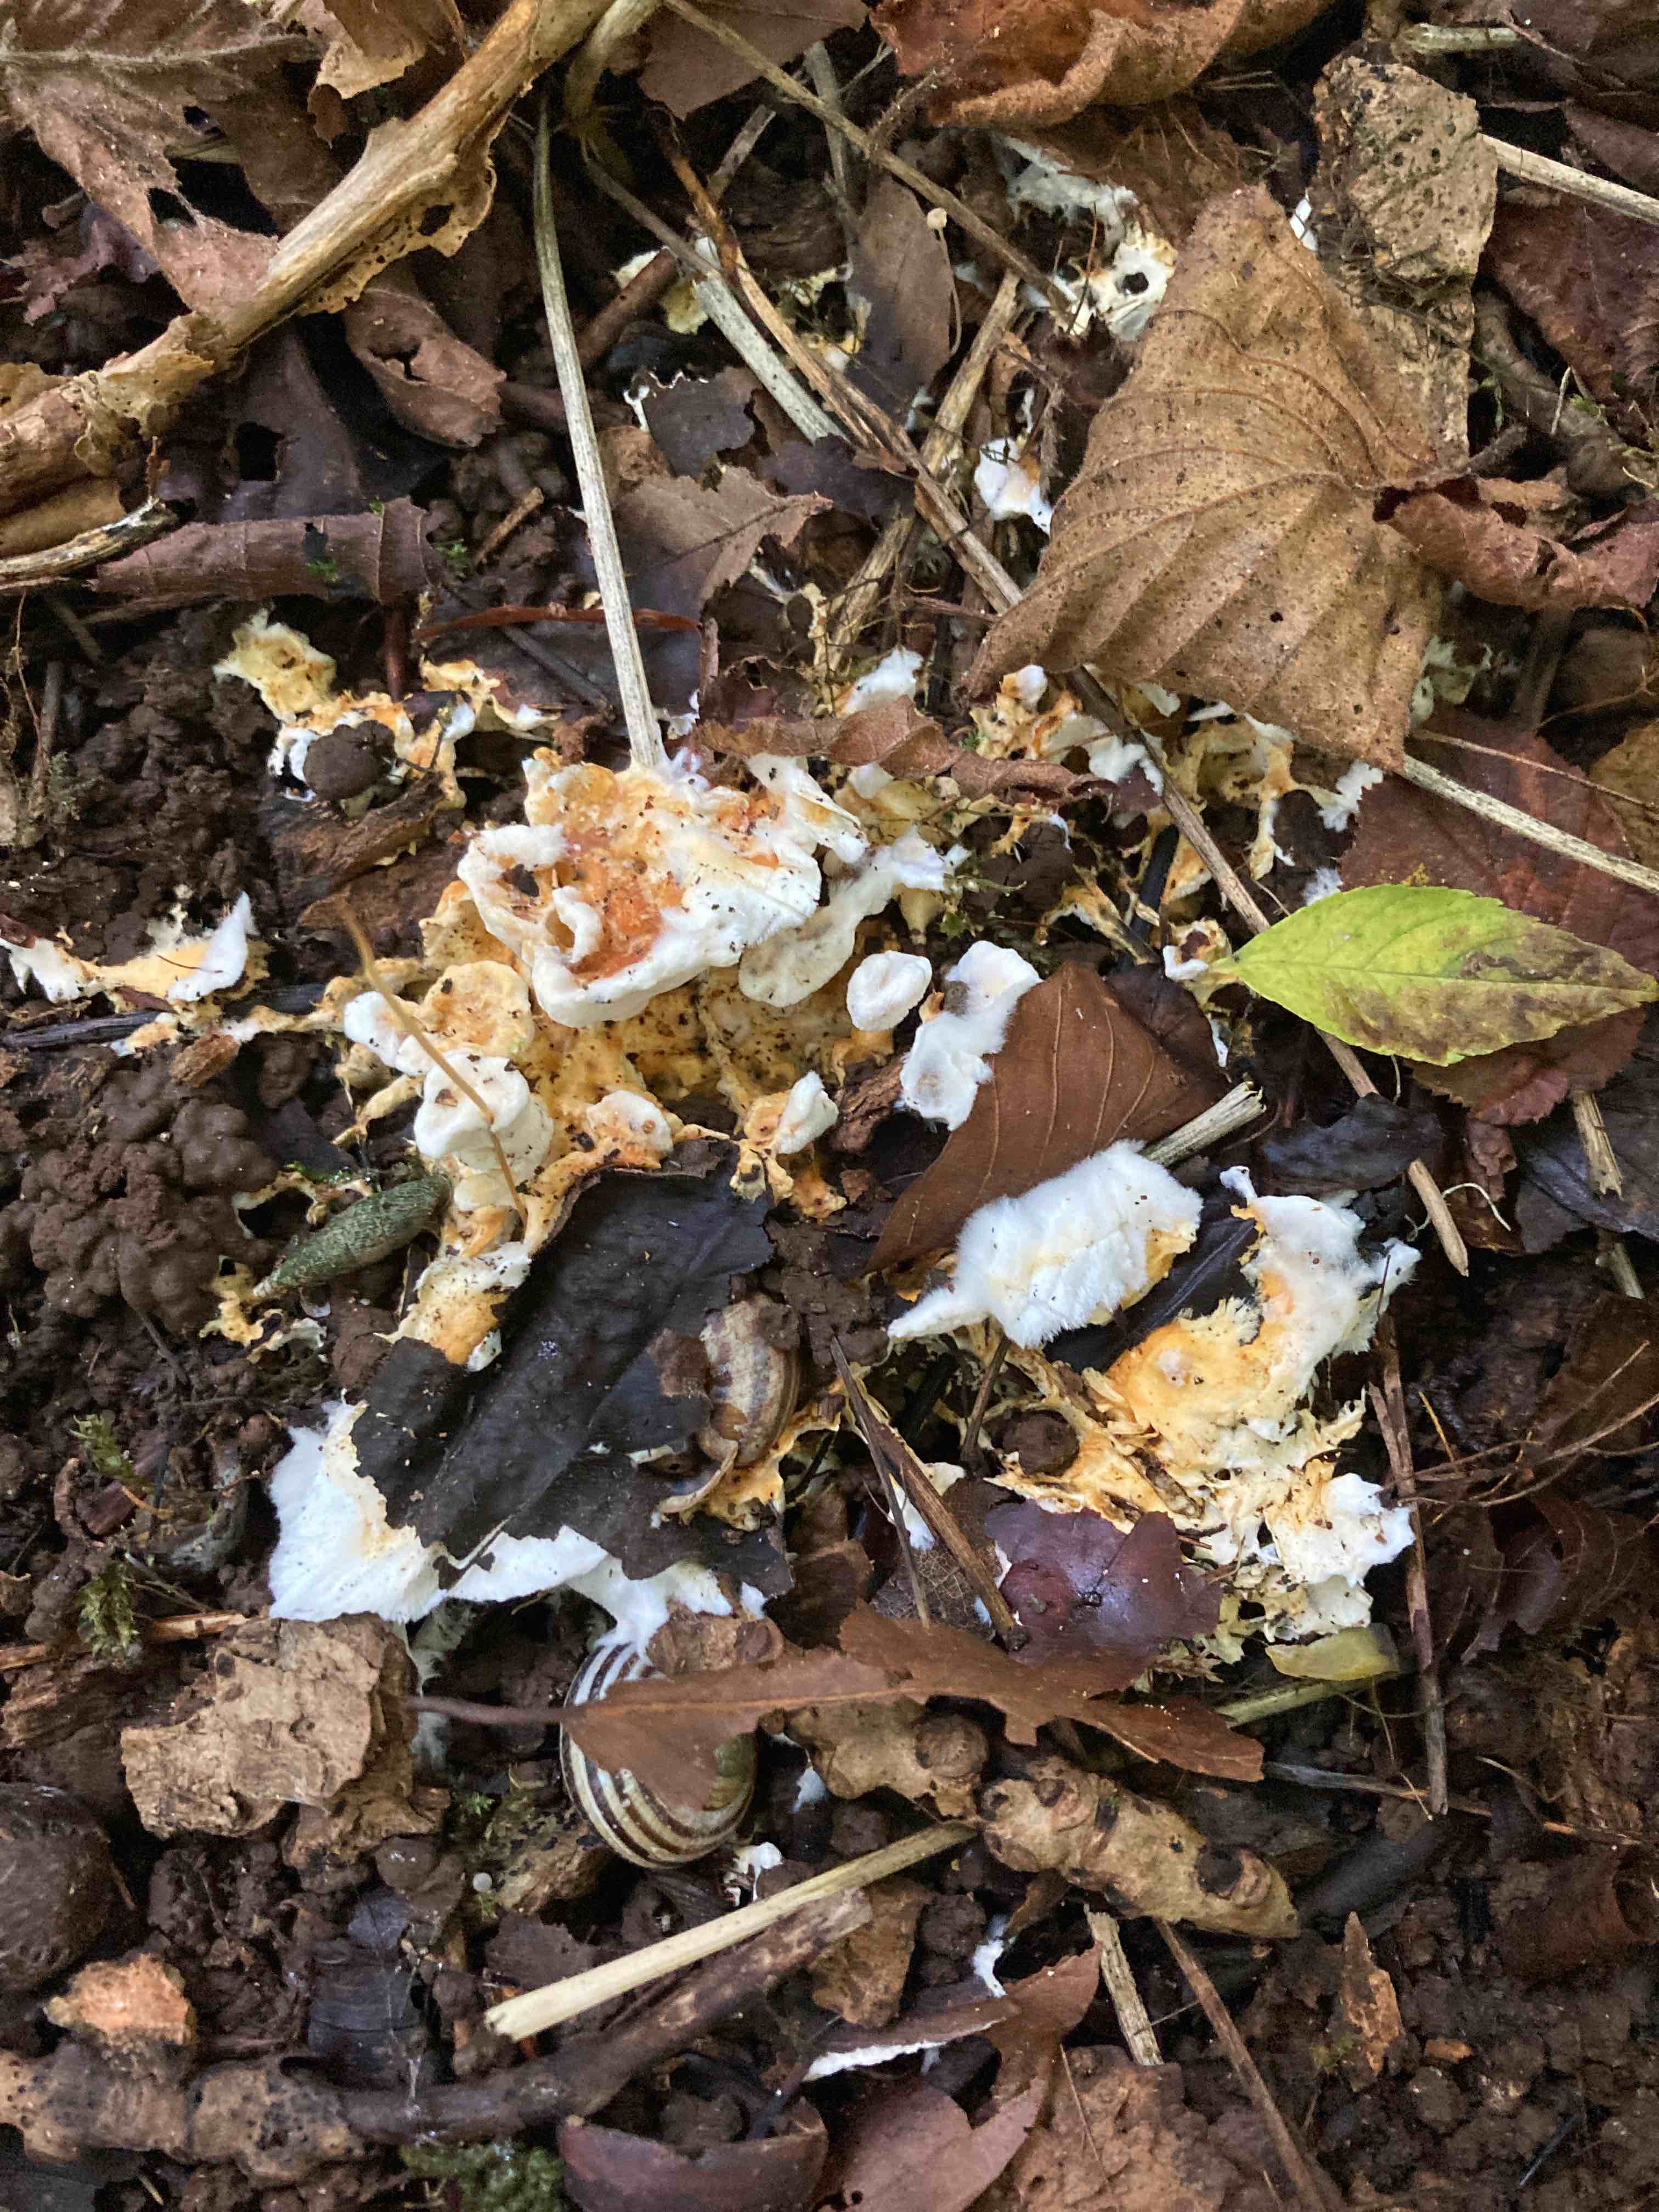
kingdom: Fungi
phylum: Basidiomycota
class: Agaricomycetes
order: Polyporales
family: Steccherinaceae
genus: Loweomyces
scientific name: Loweomyces wynneae
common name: krybende blødporesvamp
